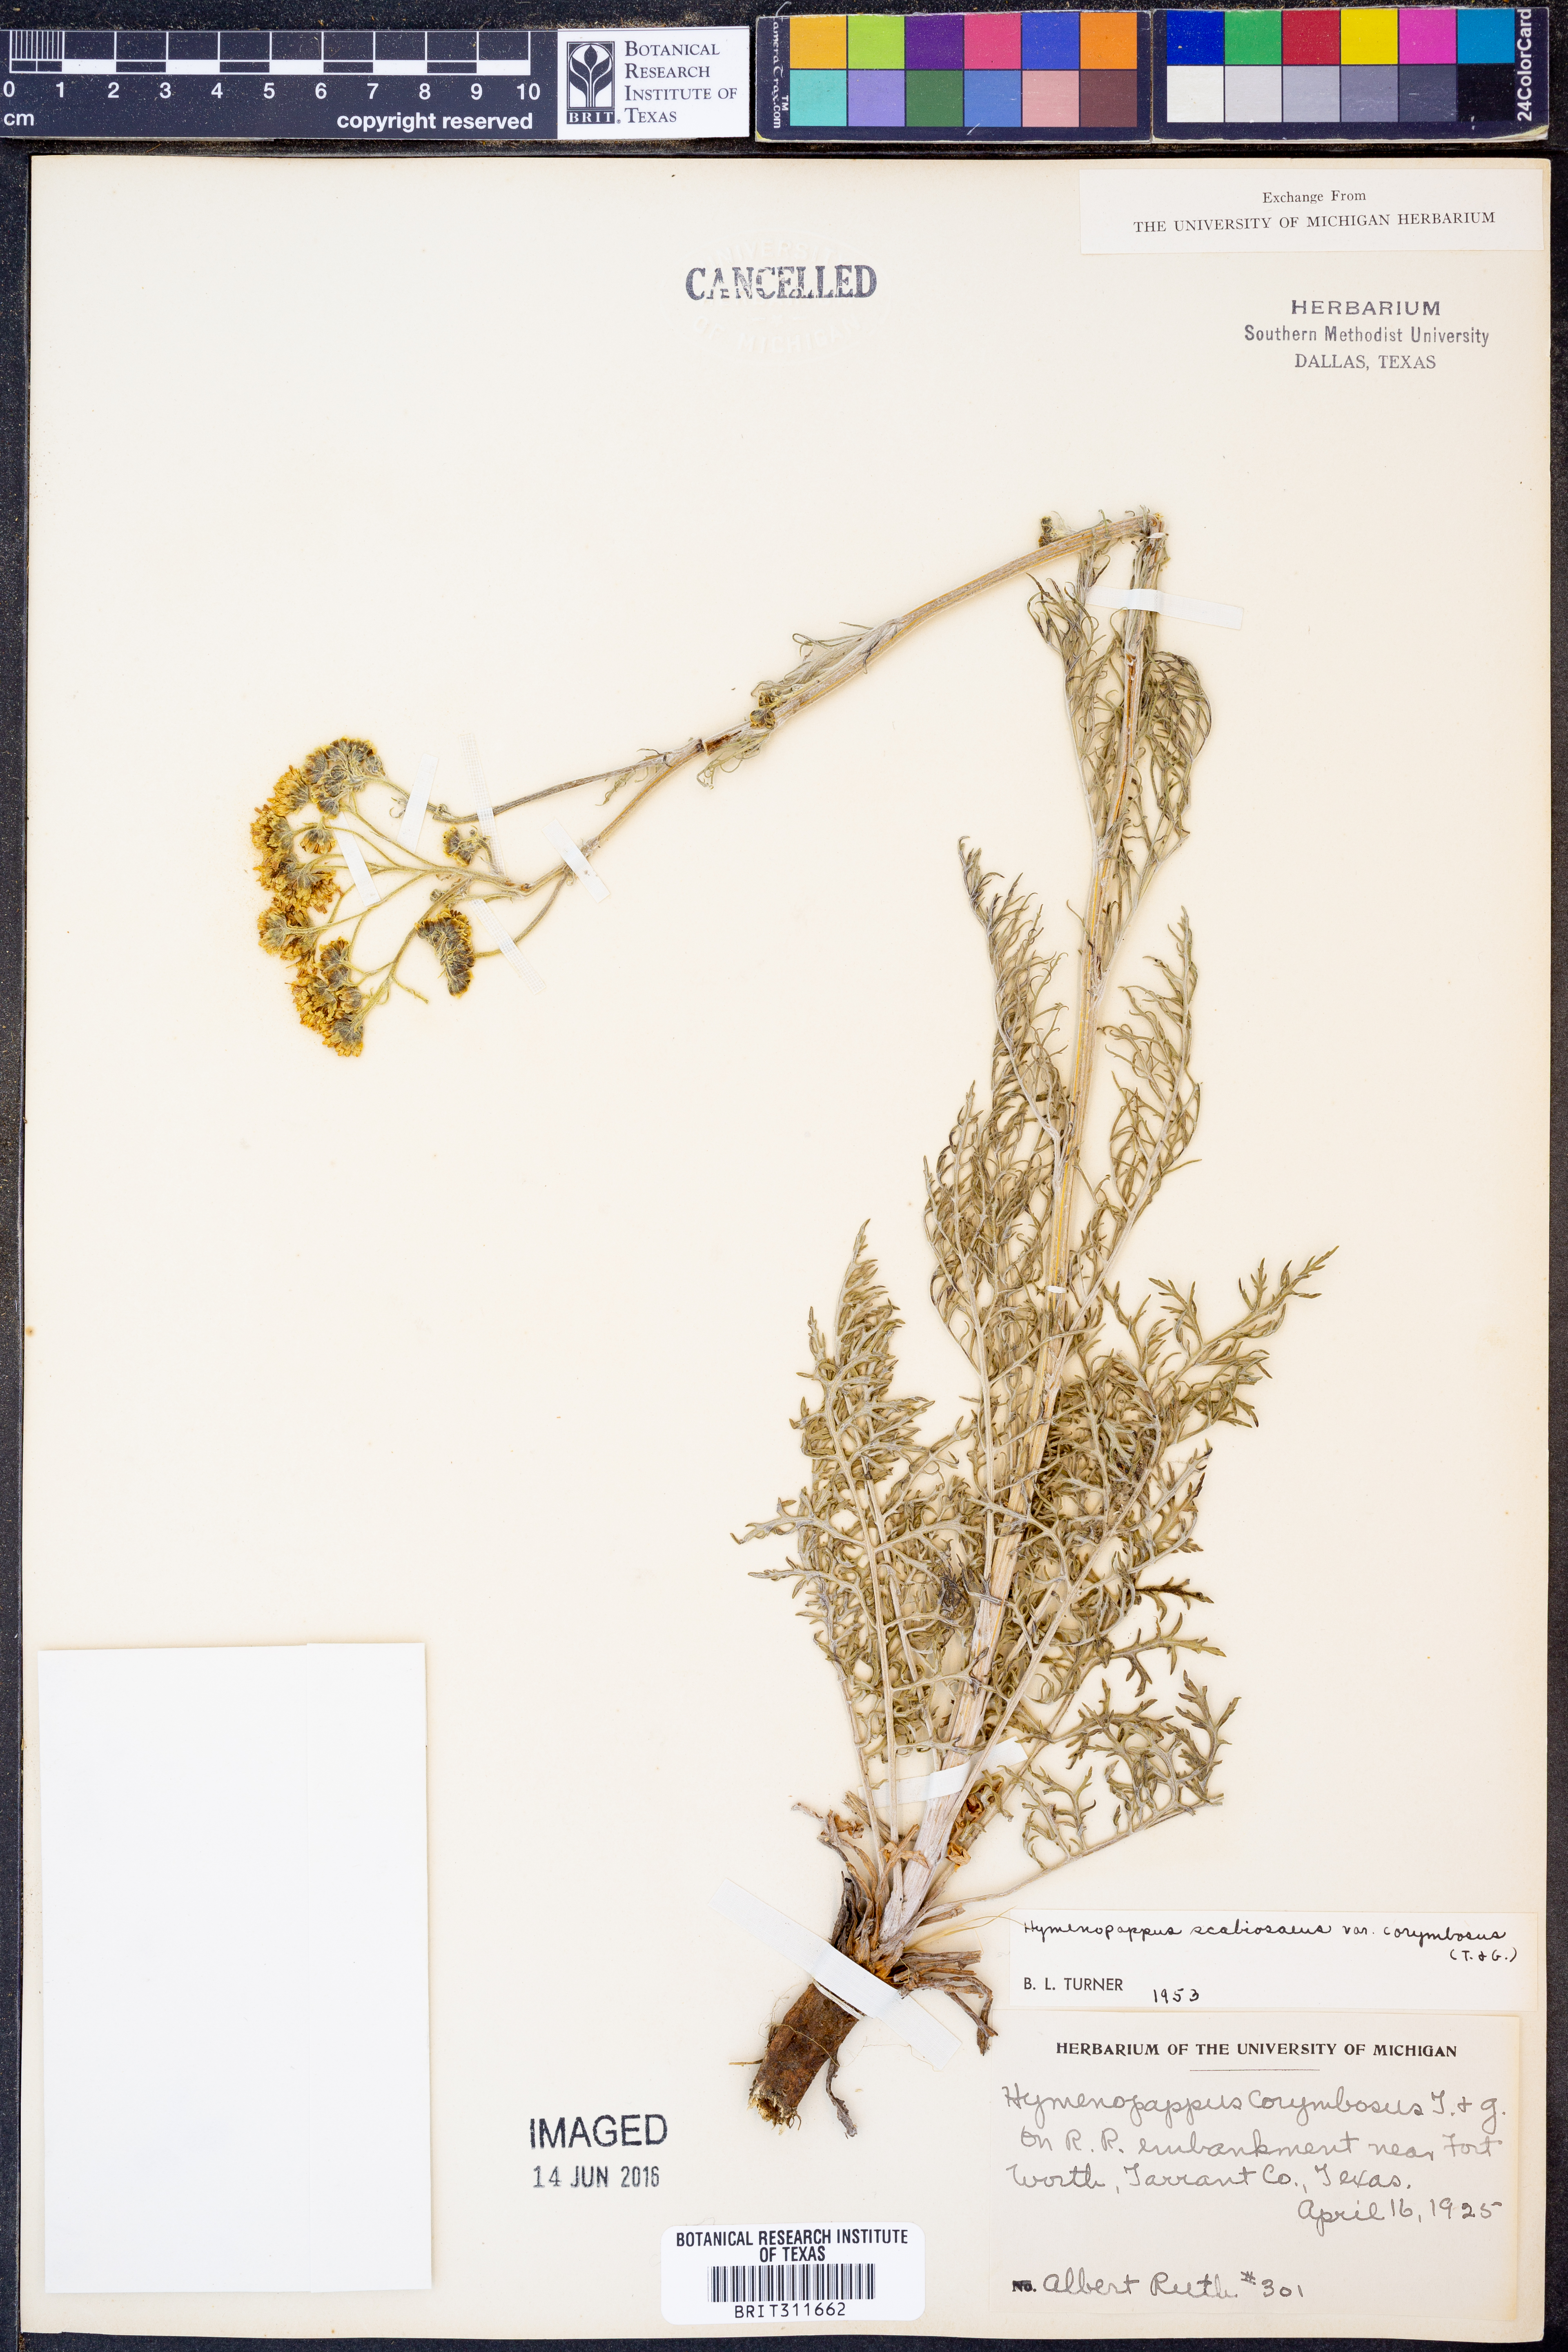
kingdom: Plantae
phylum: Tracheophyta
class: Magnoliopsida
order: Asterales
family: Asteraceae
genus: Hymenopappus
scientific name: Hymenopappus scabiosaeus
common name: Carolina woollywhite
